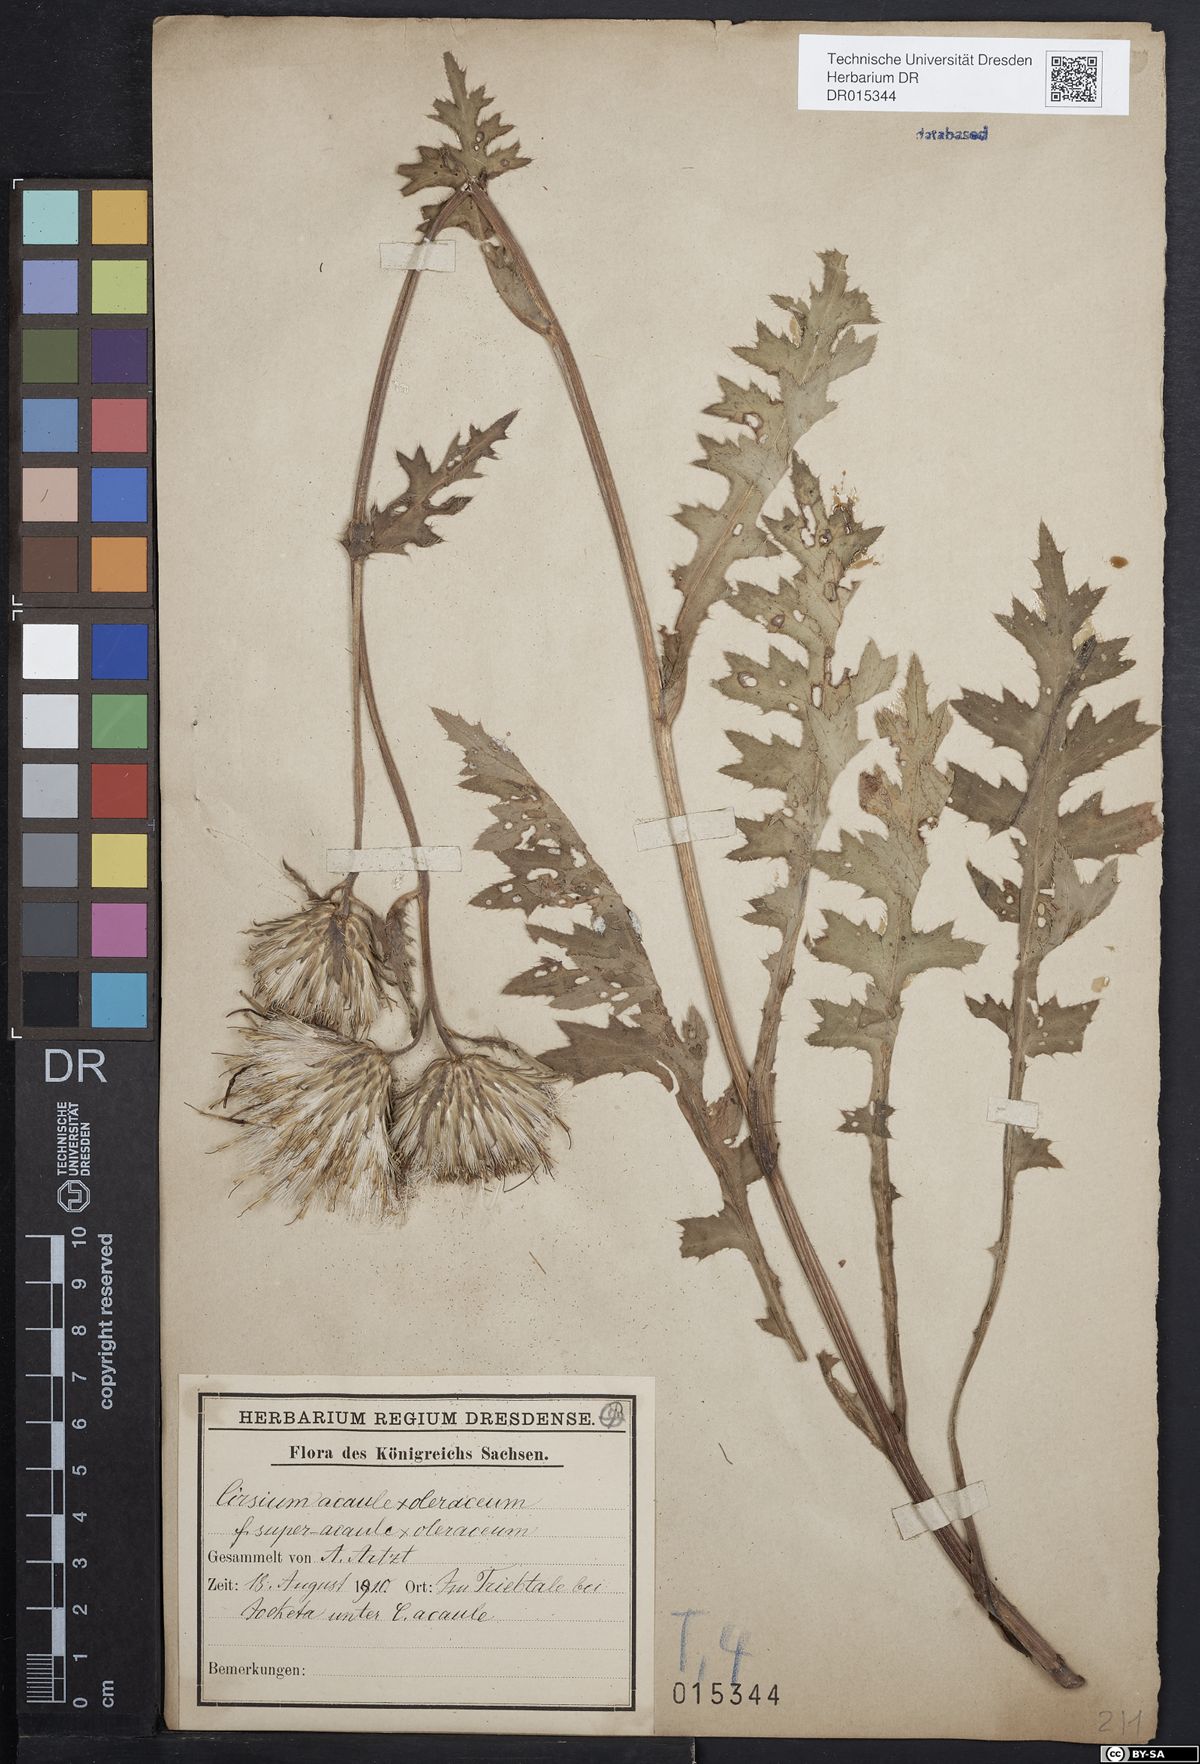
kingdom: Plantae
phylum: Tracheophyta
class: Magnoliopsida
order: Asterales
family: Asteraceae
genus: Cirsium
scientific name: Cirsium rigens
